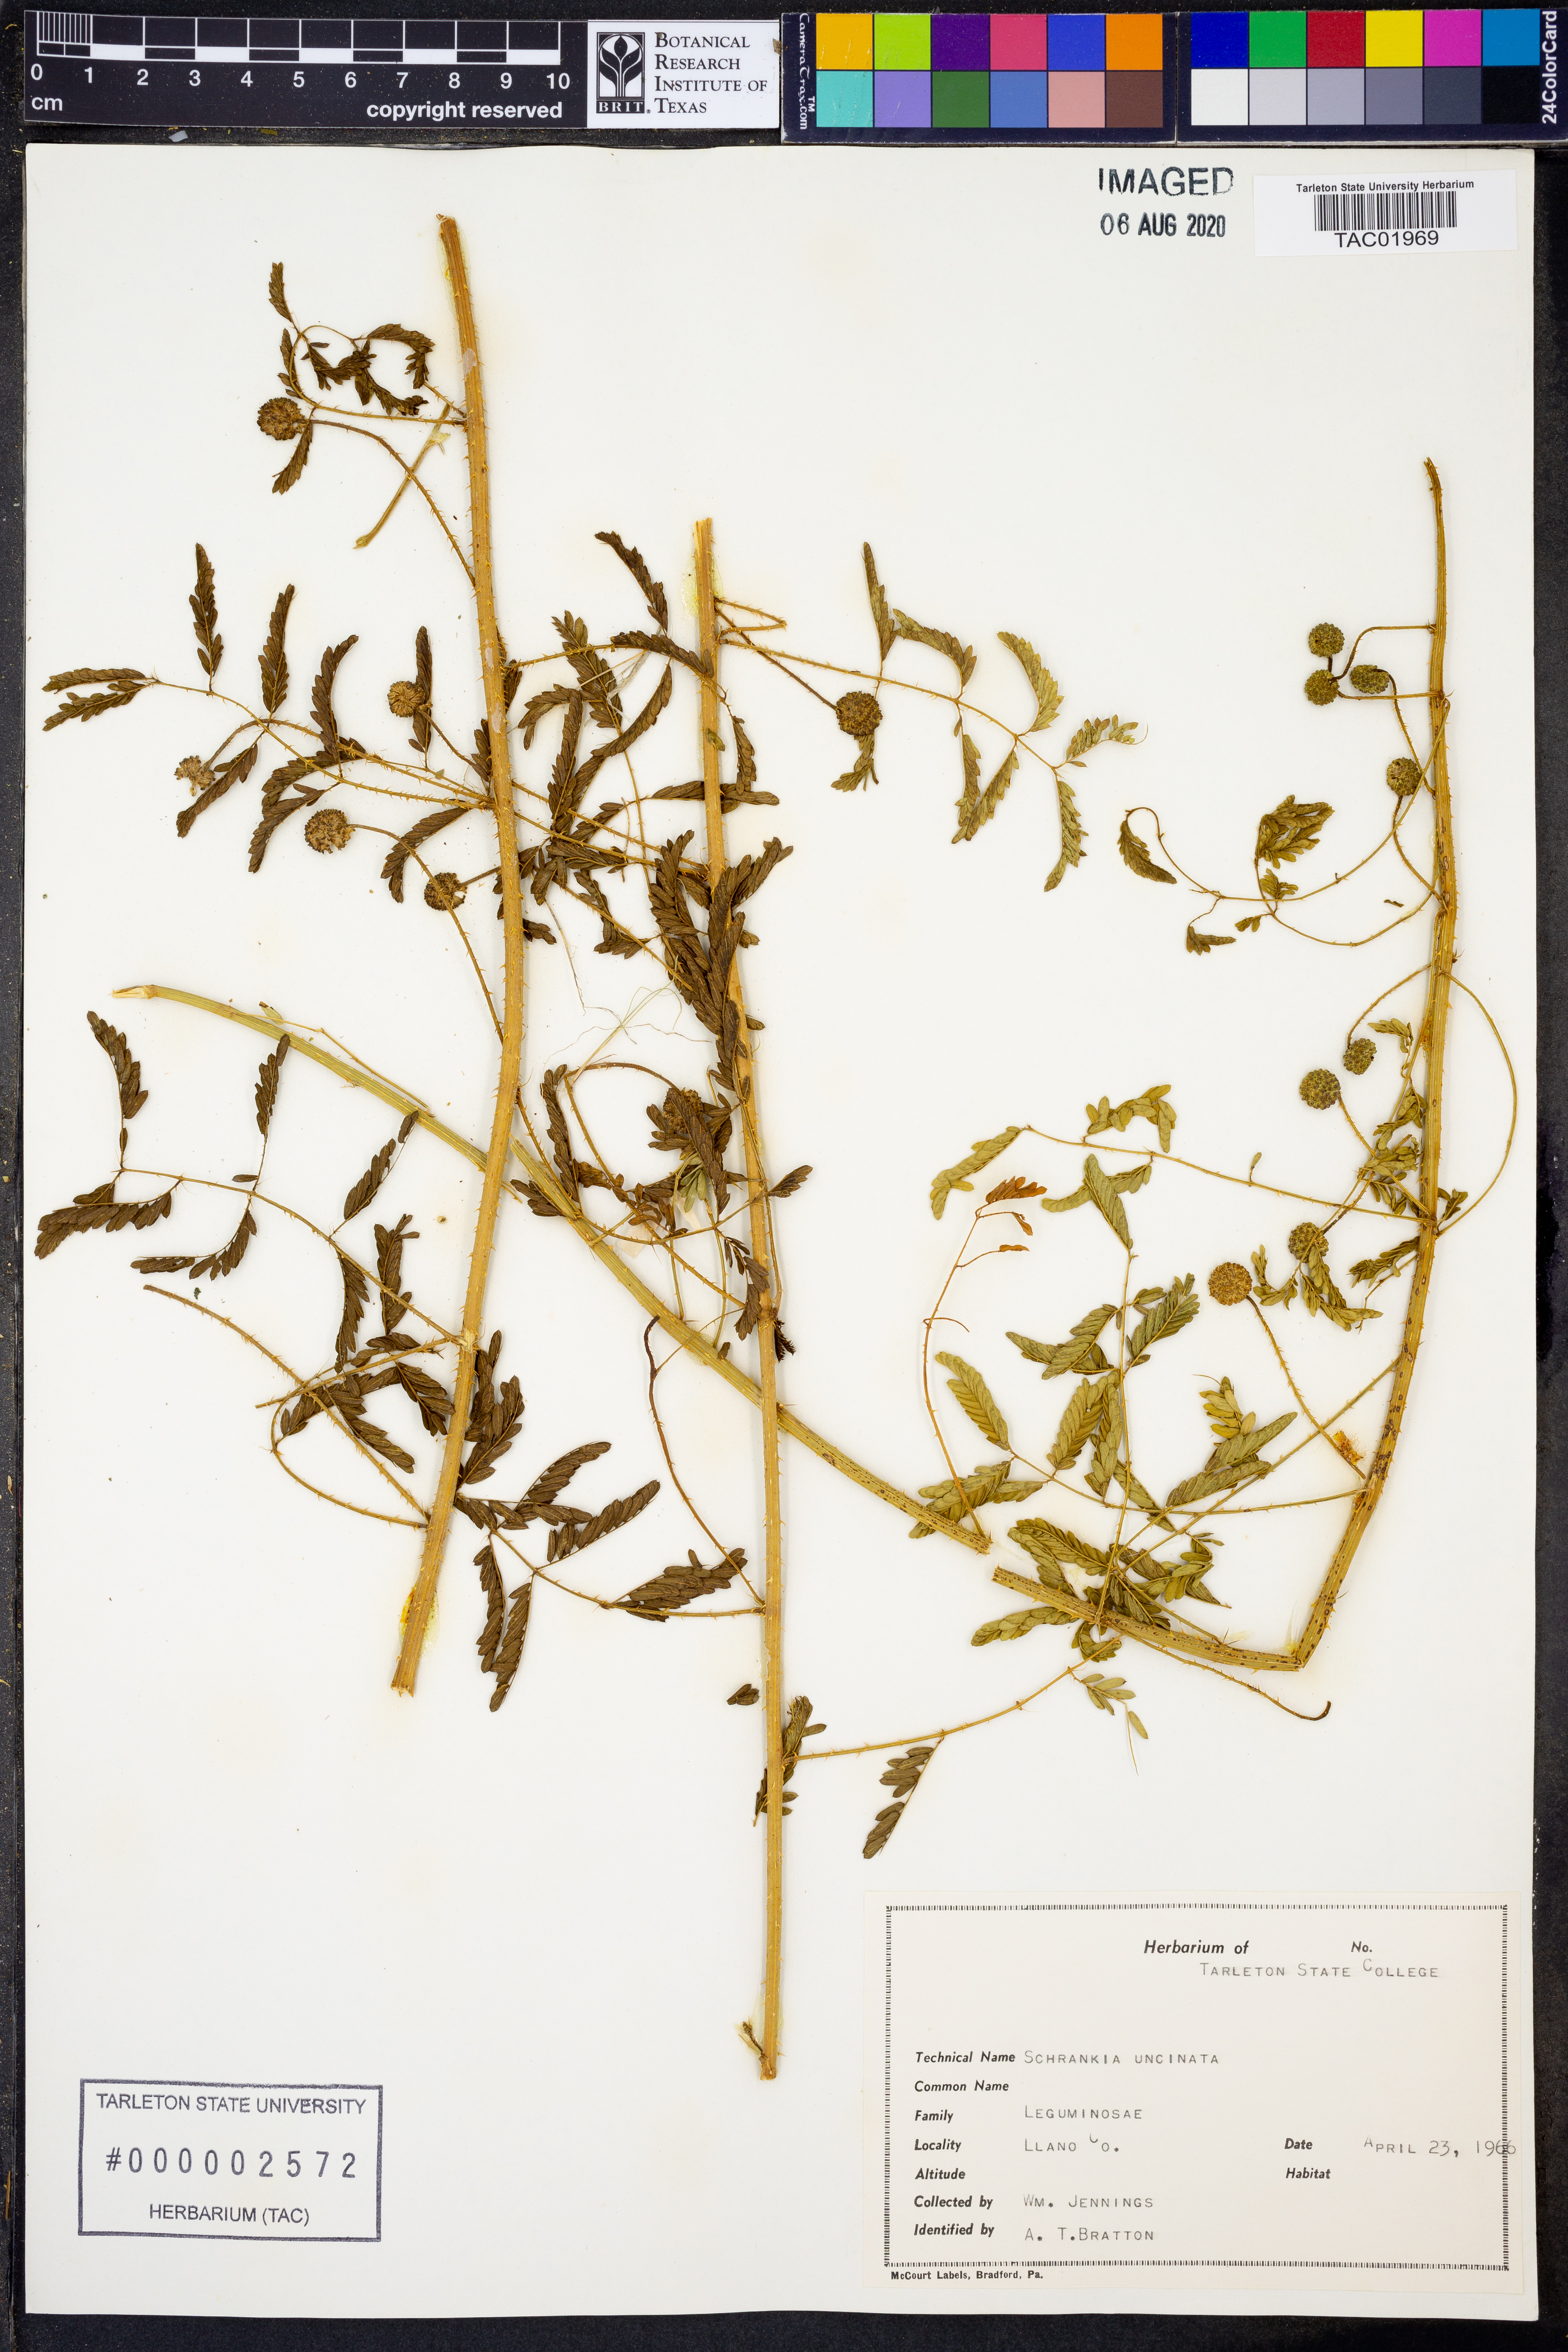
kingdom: Plantae
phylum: Tracheophyta
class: Magnoliopsida
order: Fabales
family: Fabaceae
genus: Mimosa
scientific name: Mimosa quadrivalvis
